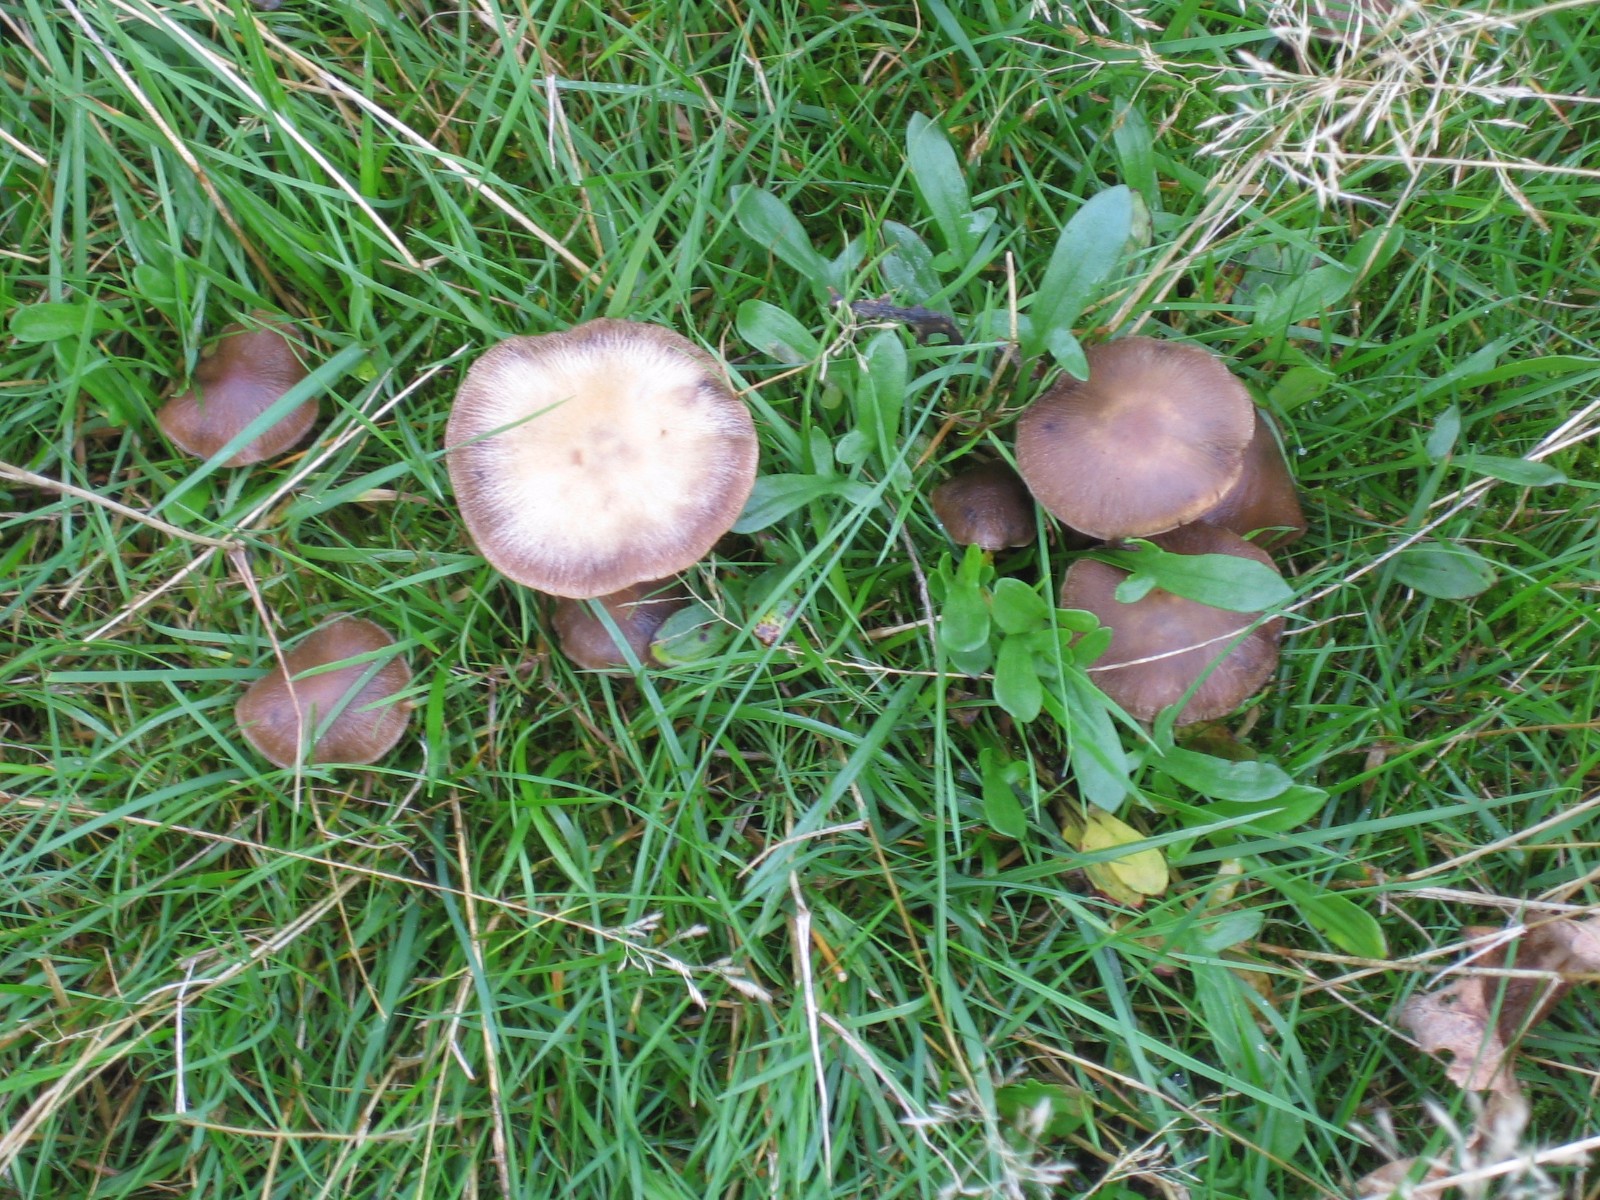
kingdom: Fungi
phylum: Basidiomycota
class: Agaricomycetes
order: Agaricales
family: Psathyrellaceae
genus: Psathyrella
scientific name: Psathyrella
